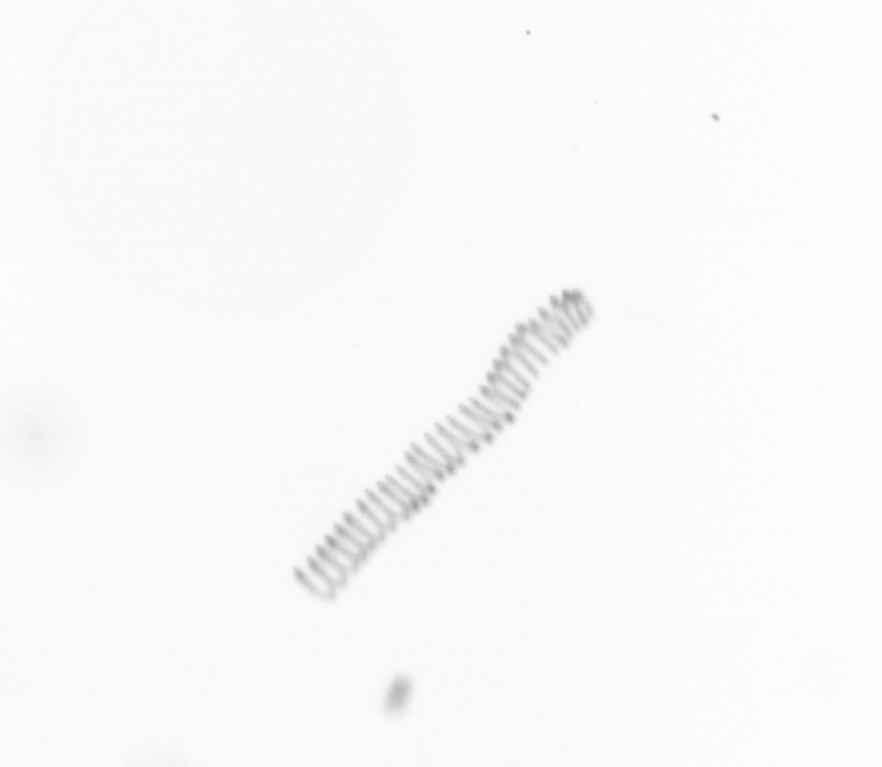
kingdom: Chromista
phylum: Ochrophyta
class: Bacillariophyceae
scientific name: Bacillariophyceae
